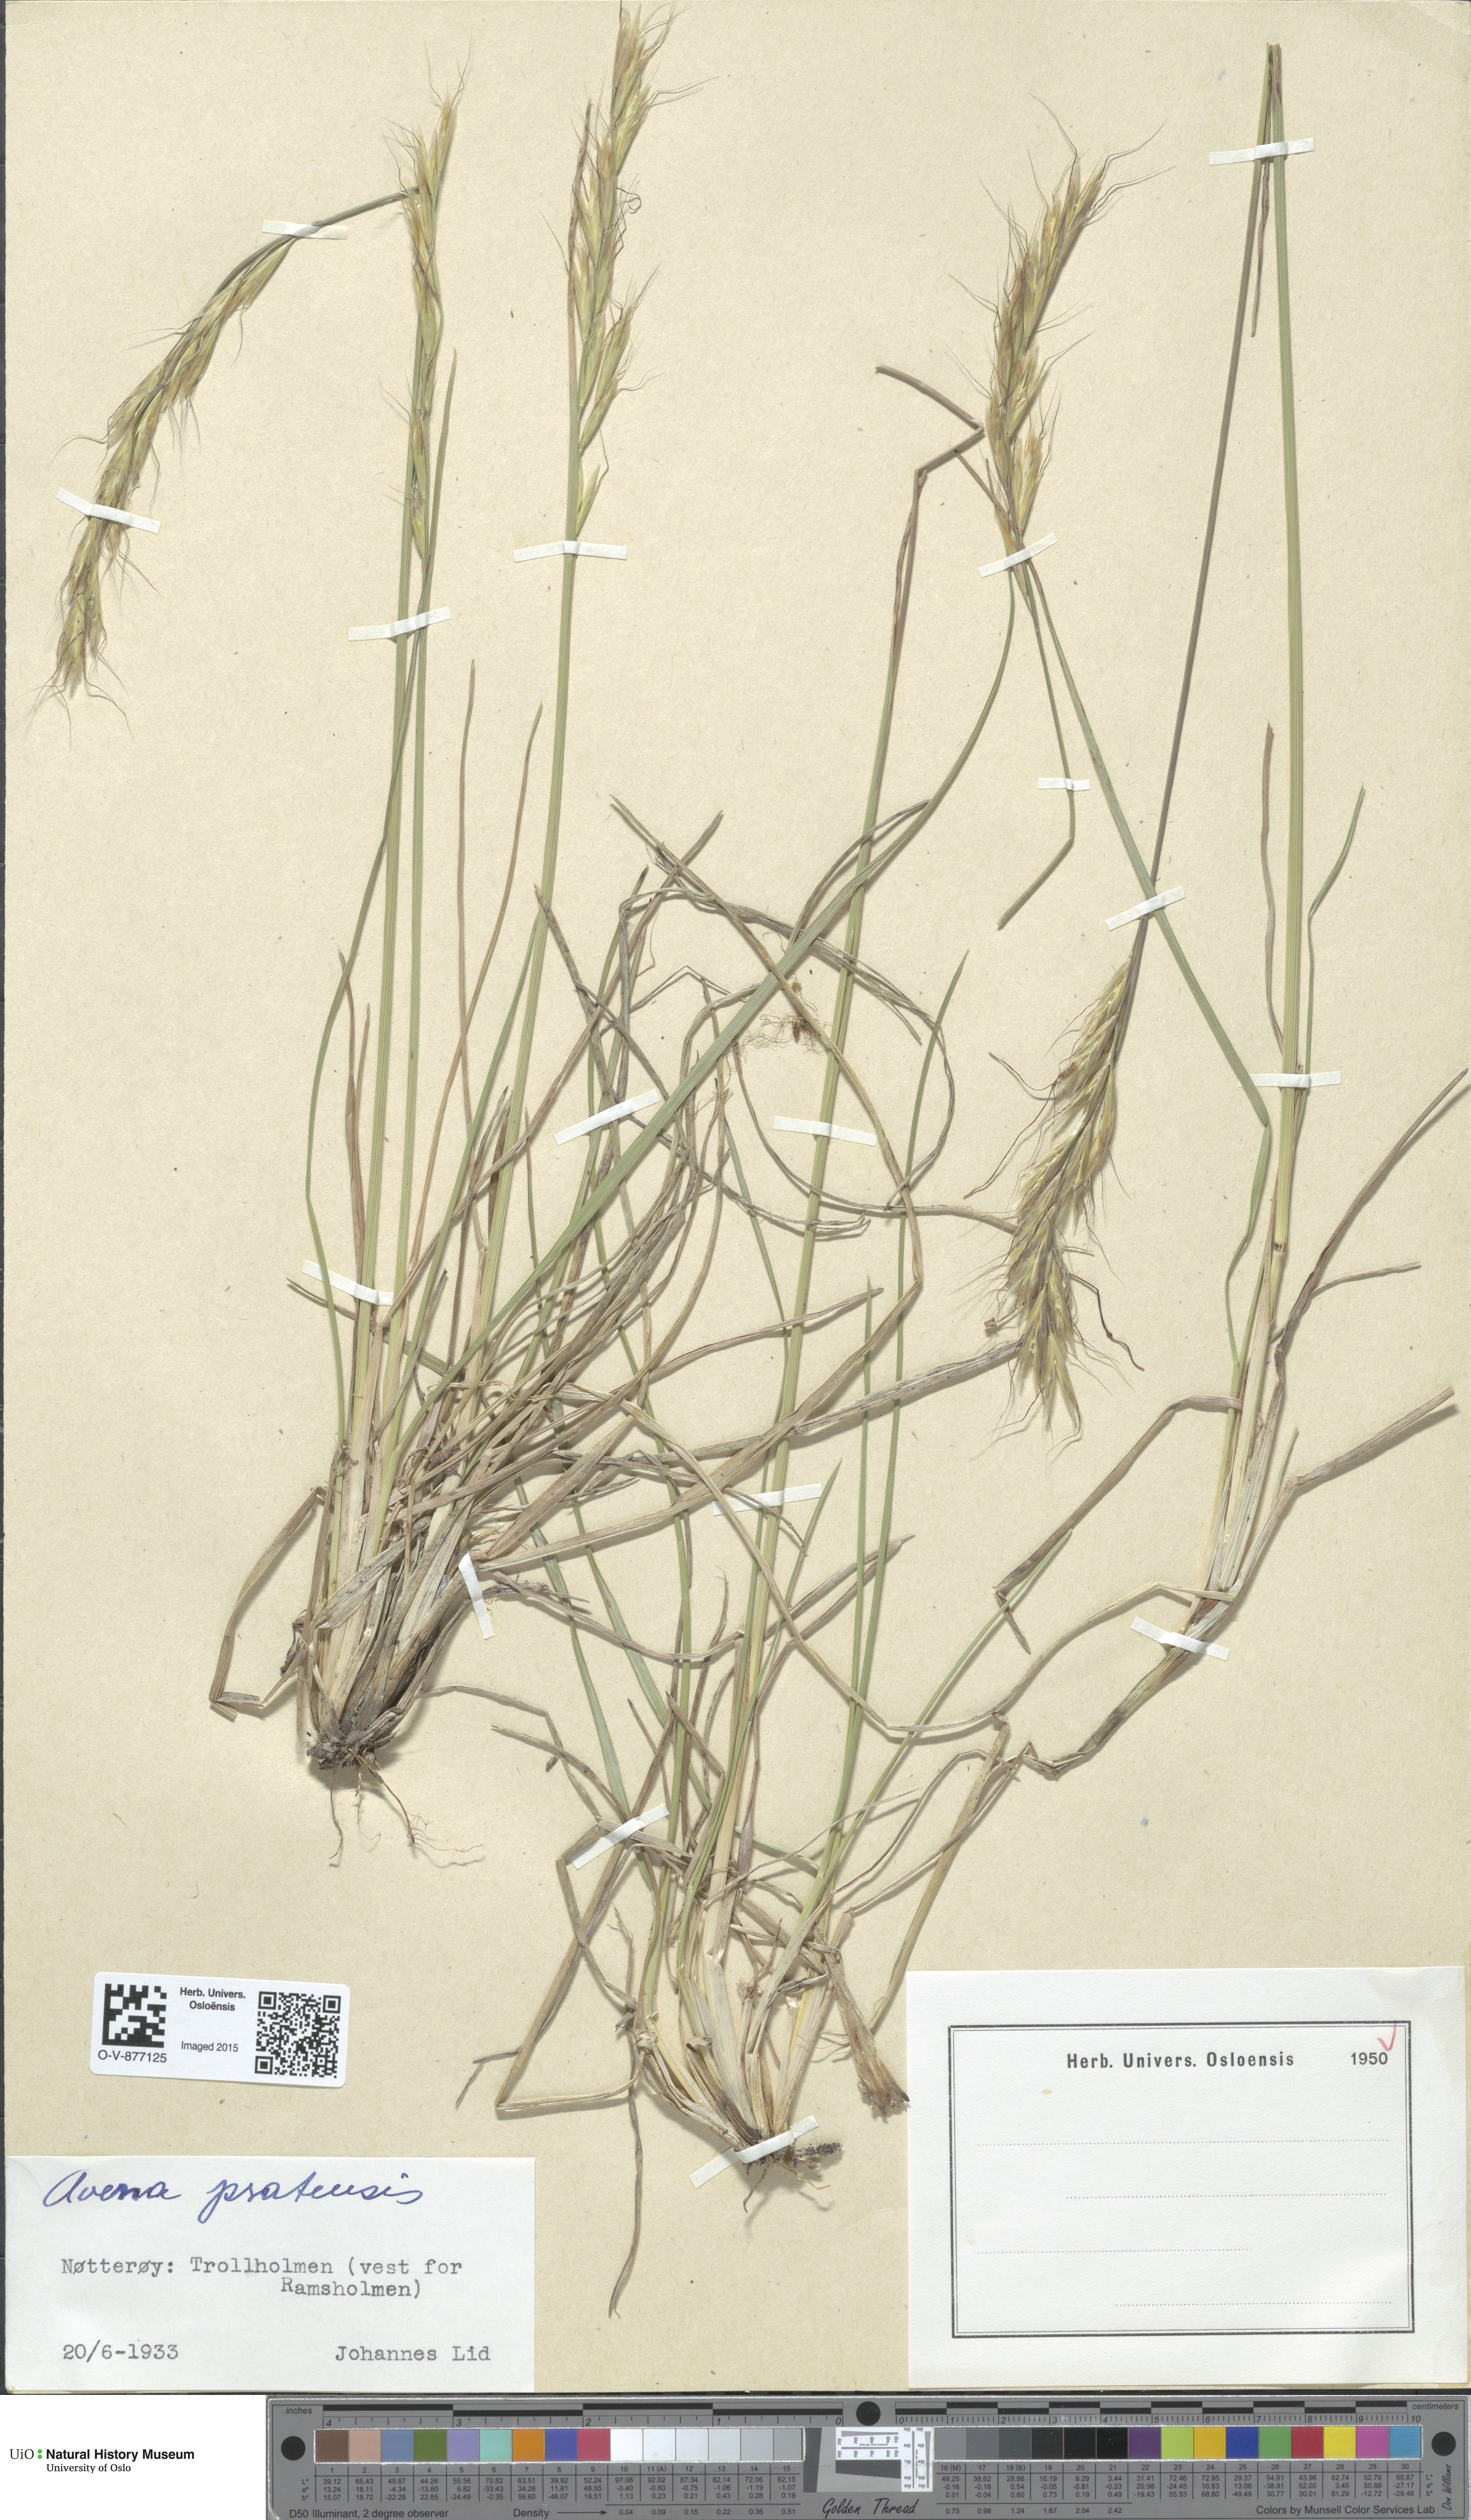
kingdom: Plantae
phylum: Tracheophyta
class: Liliopsida
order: Poales
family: Poaceae
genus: Helictochloa
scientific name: Helictochloa pratensis
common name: Meadow oat grass
